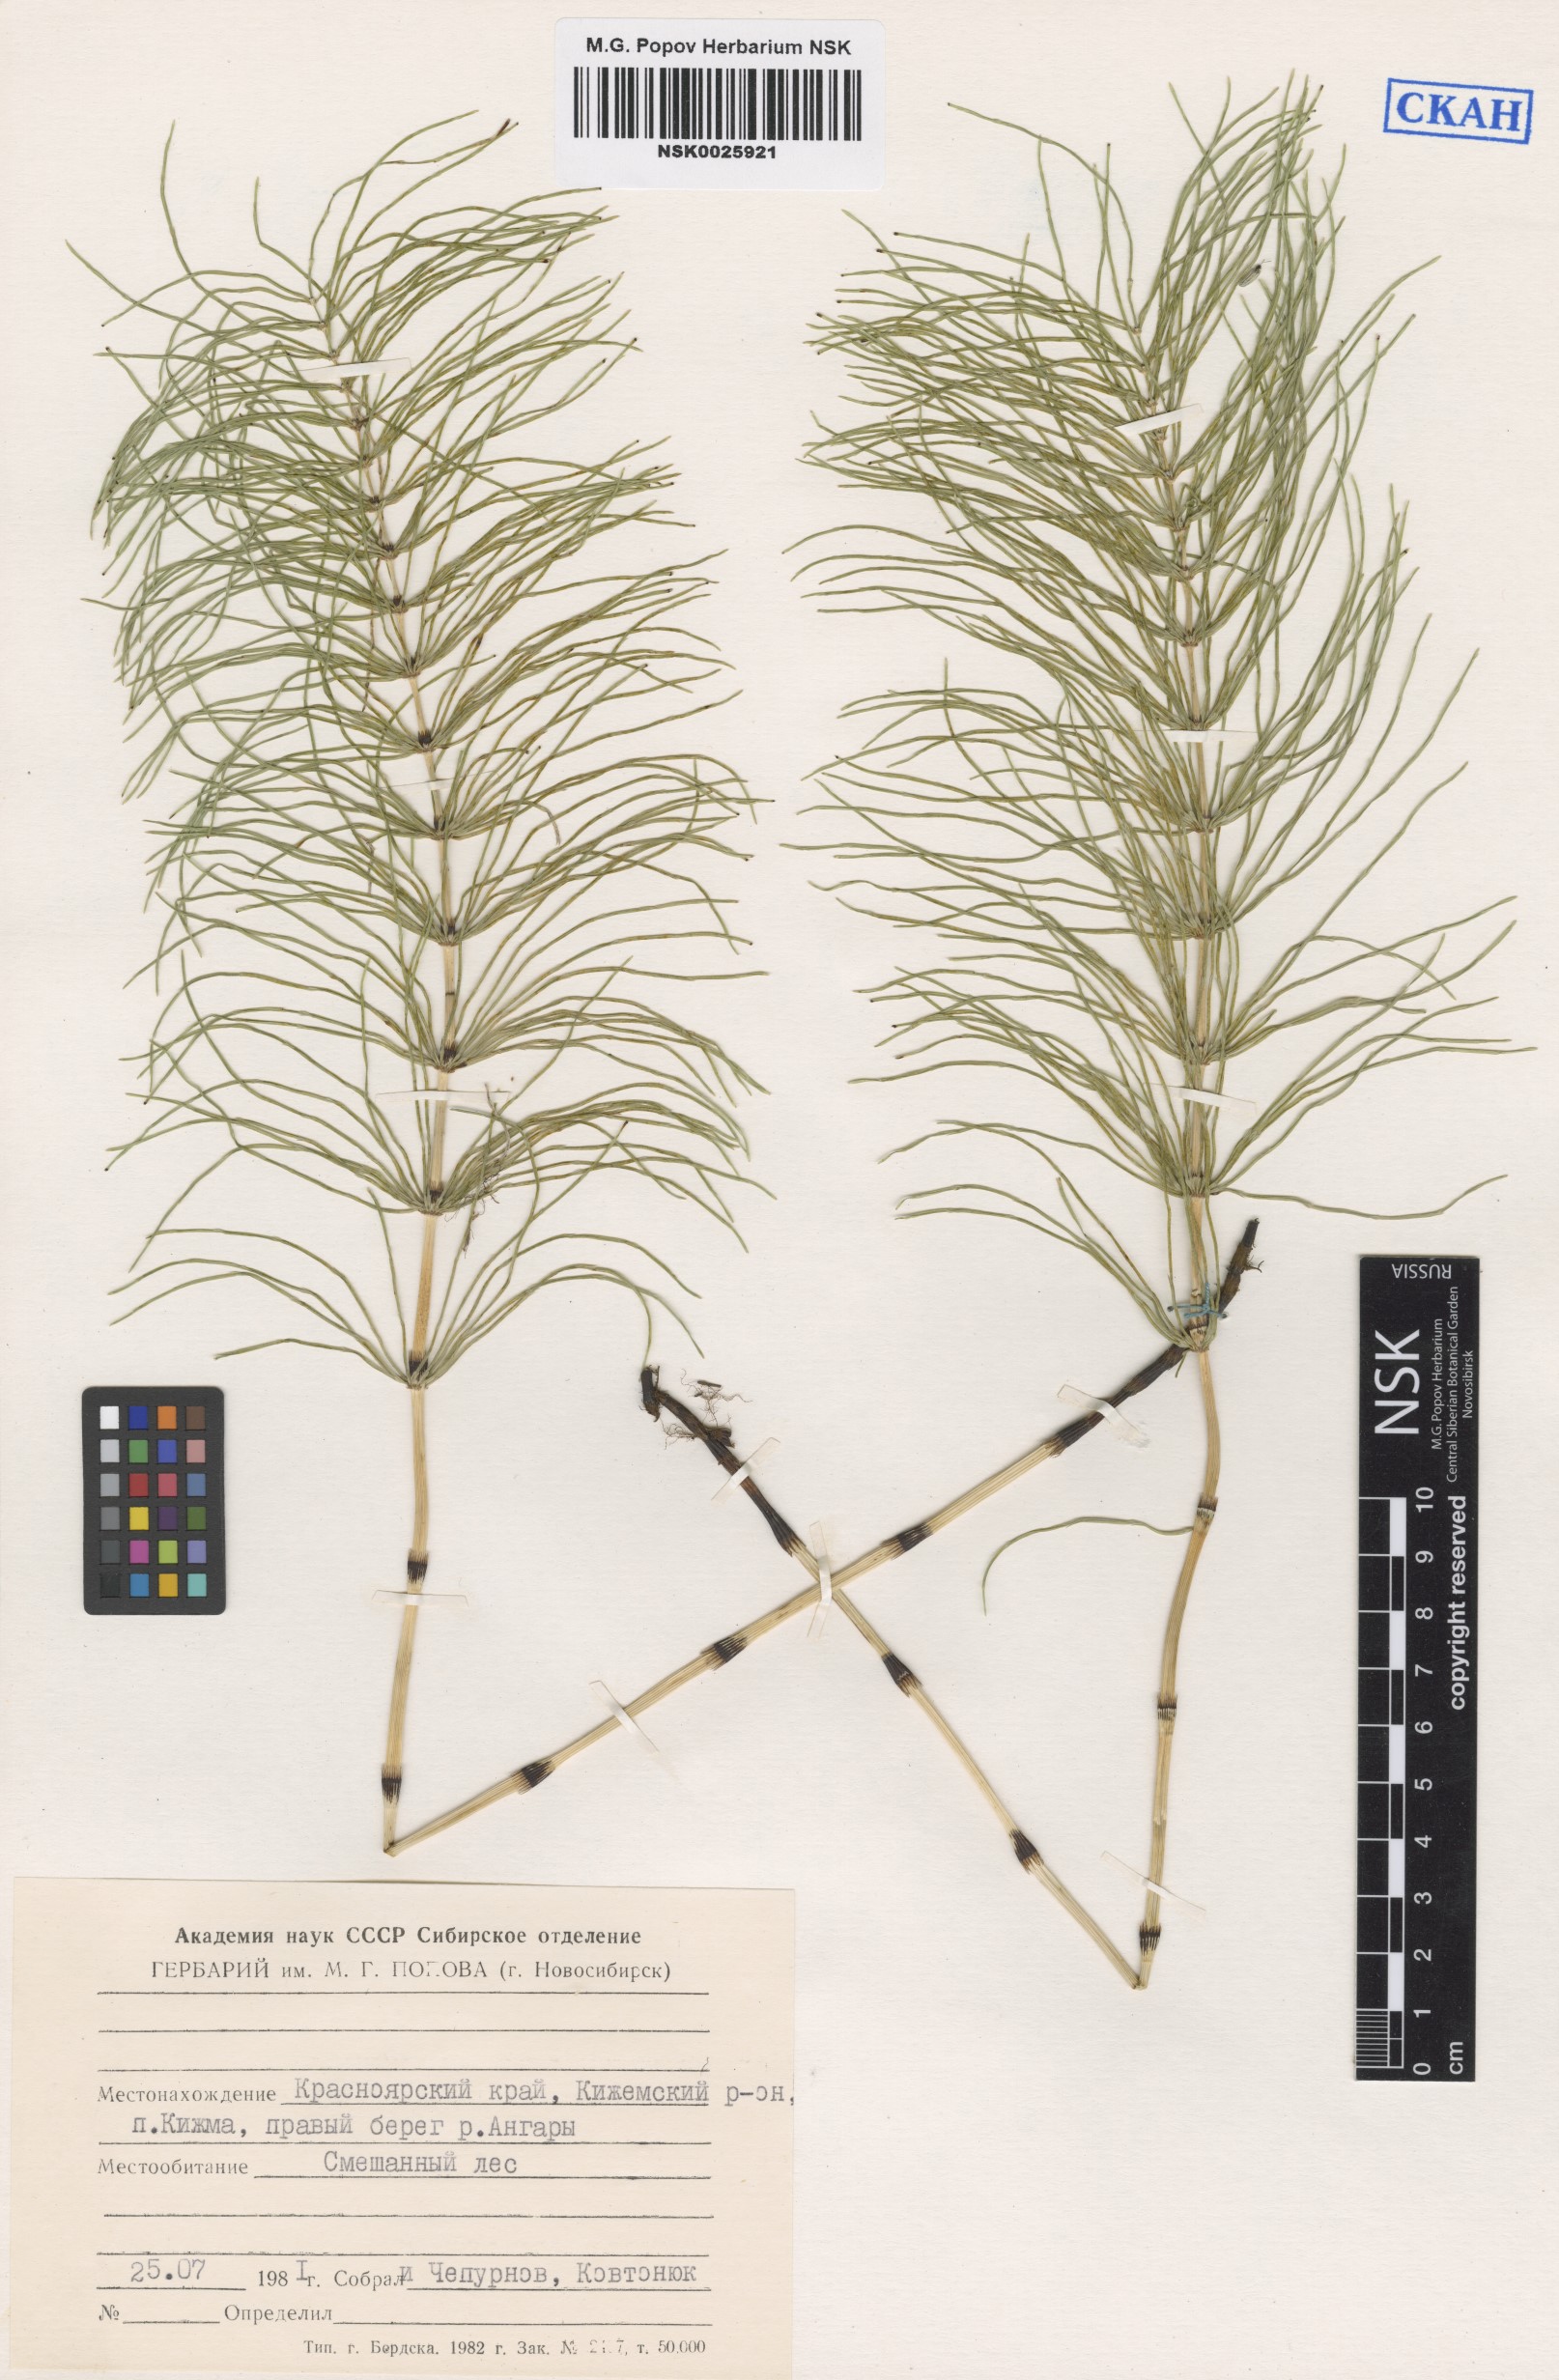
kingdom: Plantae
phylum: Tracheophyta
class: Polypodiopsida
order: Equisetales
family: Equisetaceae
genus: Equisetum
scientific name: Equisetum pratense
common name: Meadow horsetail
